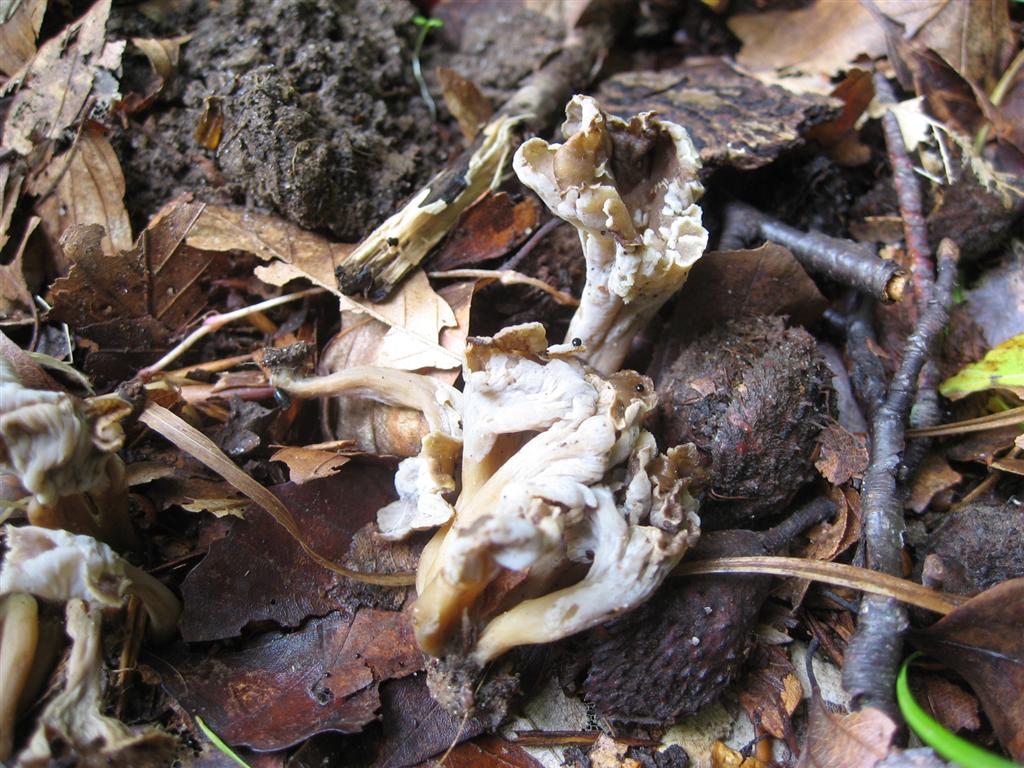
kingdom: Fungi
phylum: Basidiomycota
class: Agaricomycetes
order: Cantharellales
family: Hydnaceae
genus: Craterellus
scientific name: Craterellus undulatus
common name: liden kantarel
